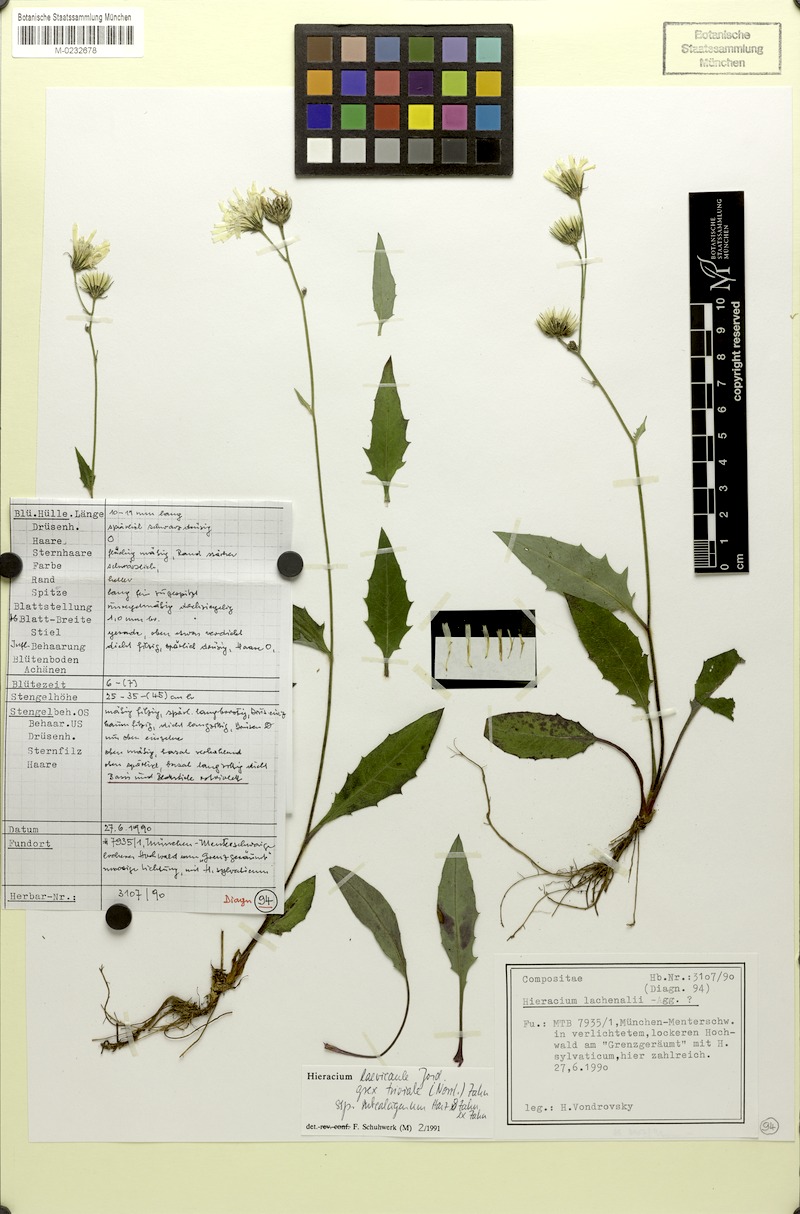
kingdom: Plantae
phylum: Tracheophyta
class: Magnoliopsida
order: Asterales
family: Asteraceae
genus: Hieracium
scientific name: Hieracium
